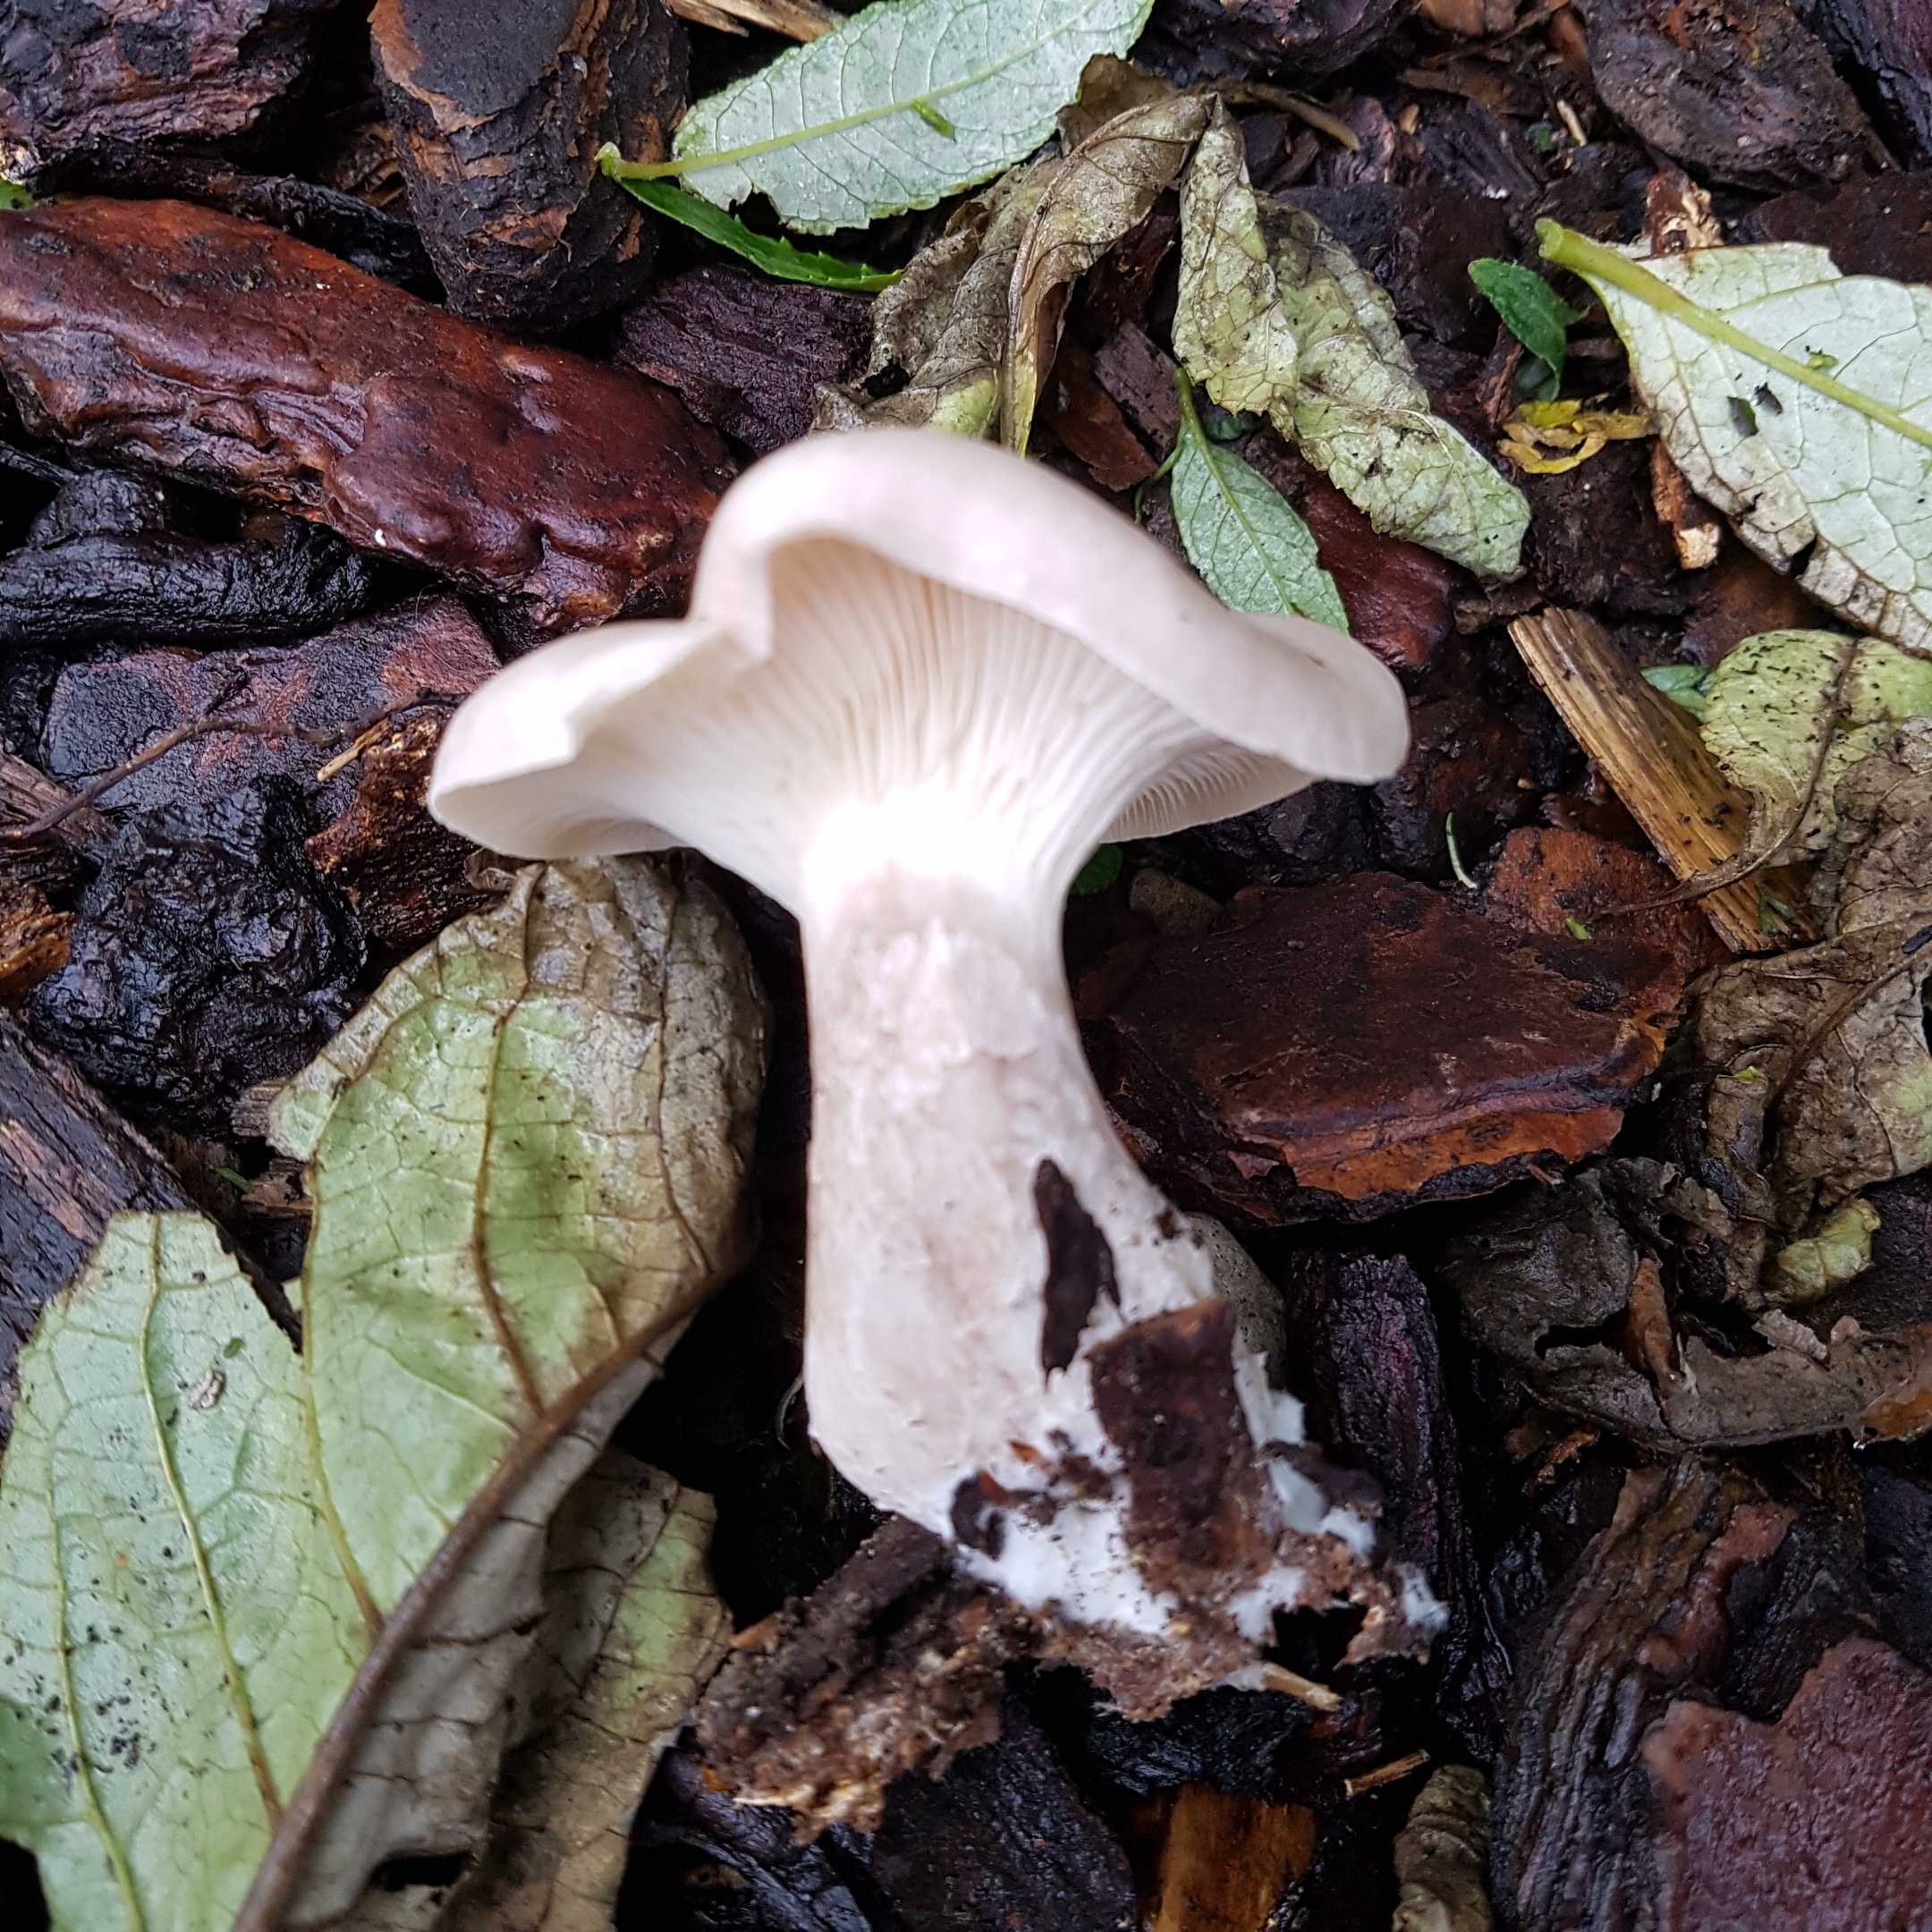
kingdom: Fungi
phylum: Basidiomycota
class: Agaricomycetes
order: Agaricales
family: Tricholomataceae
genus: Clitocybe
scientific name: Clitocybe nebularis
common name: tåge-tragthat
